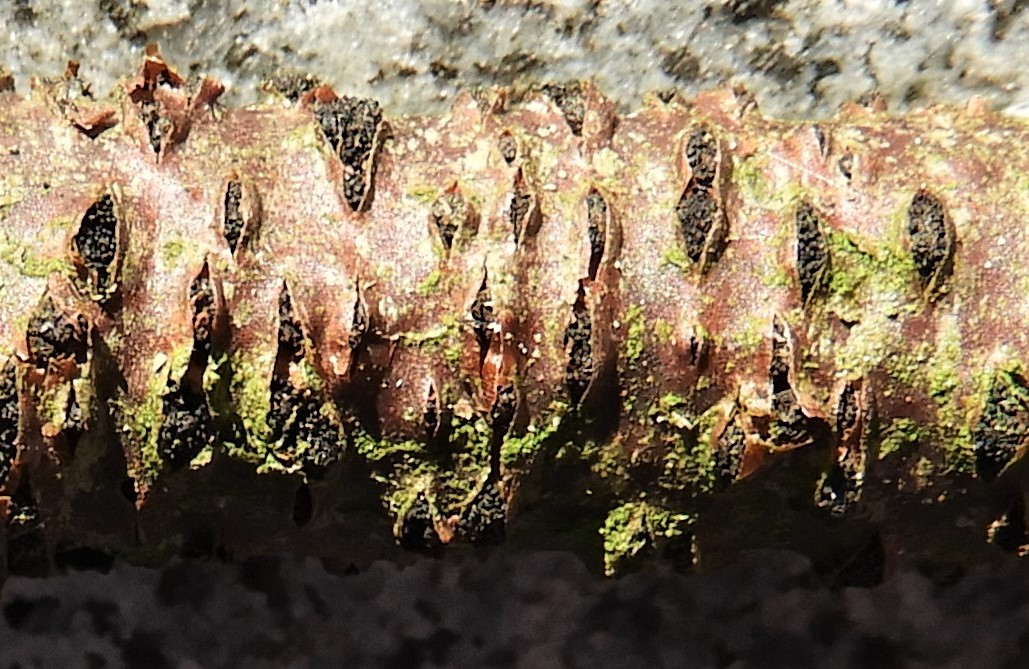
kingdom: Fungi
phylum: Ascomycota
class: Sordariomycetes
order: Diaporthales
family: Diaporthaceae
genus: Diaporthe
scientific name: Diaporthe strumella
